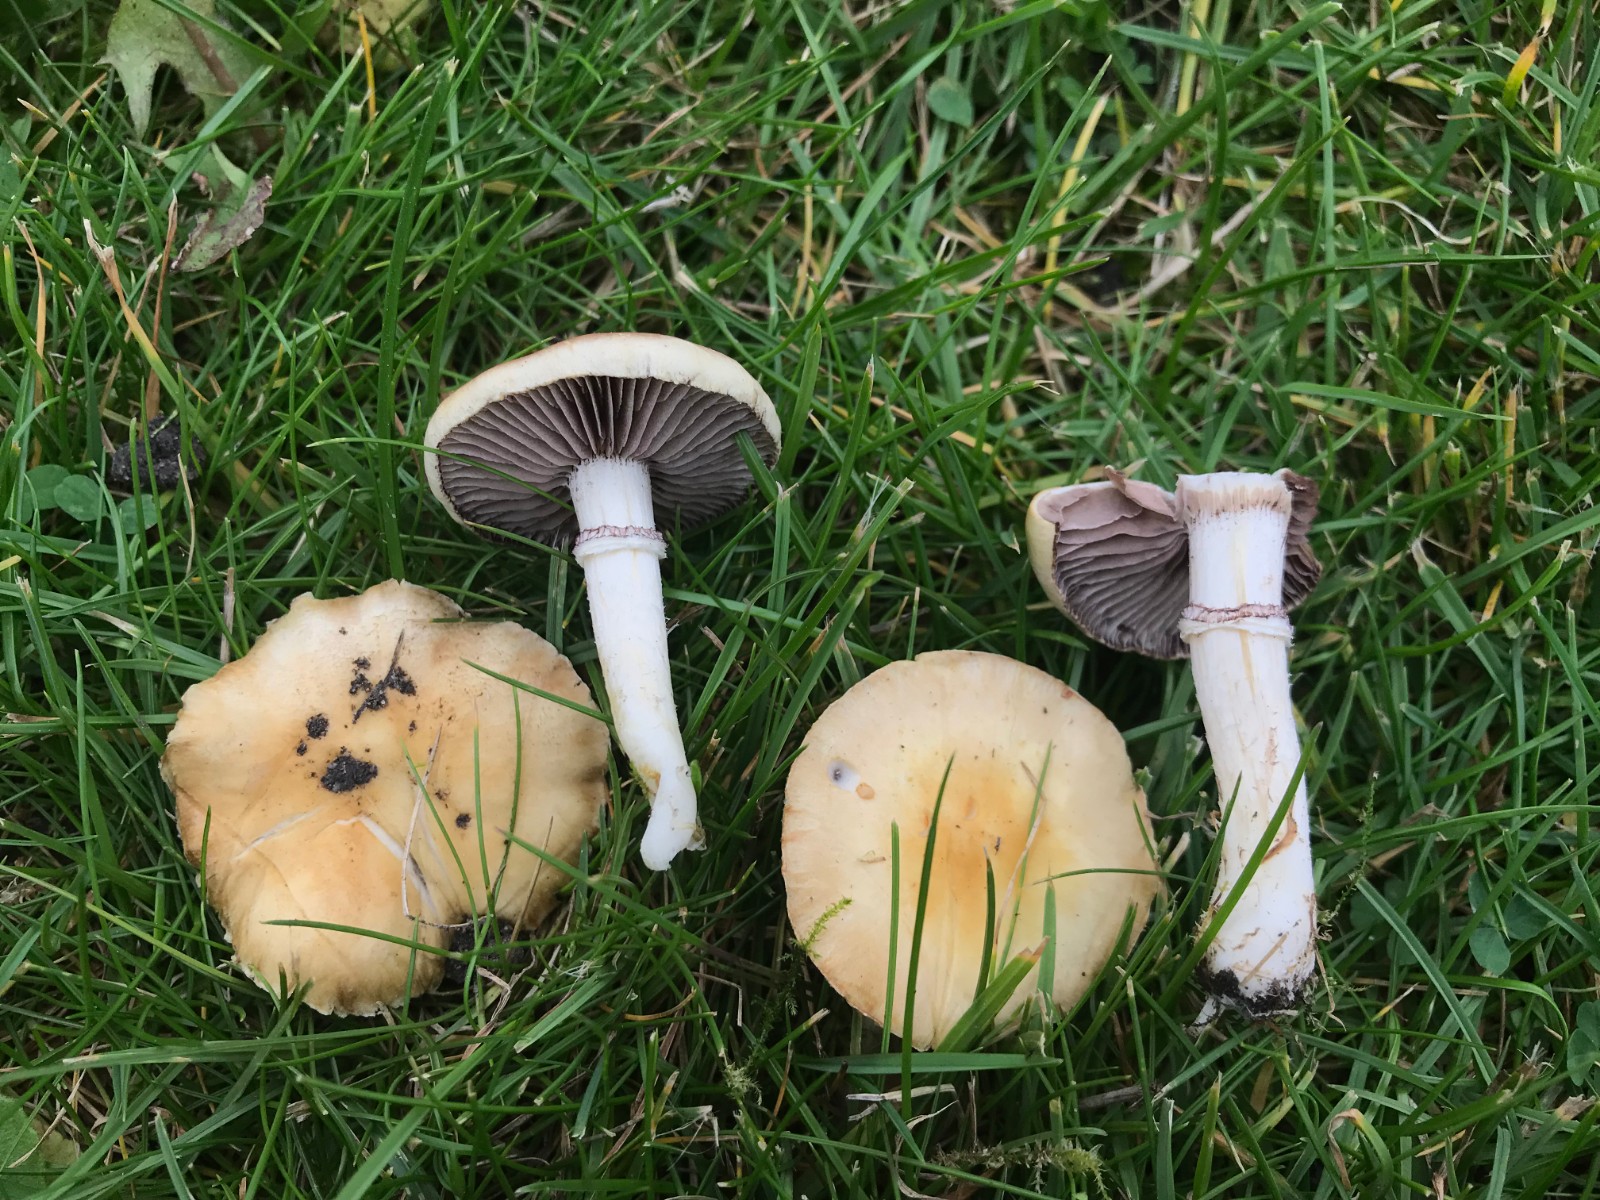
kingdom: Fungi
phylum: Basidiomycota
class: Agaricomycetes
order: Agaricales
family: Hymenogastraceae
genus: Psilocybe
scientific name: Psilocybe coronilla
